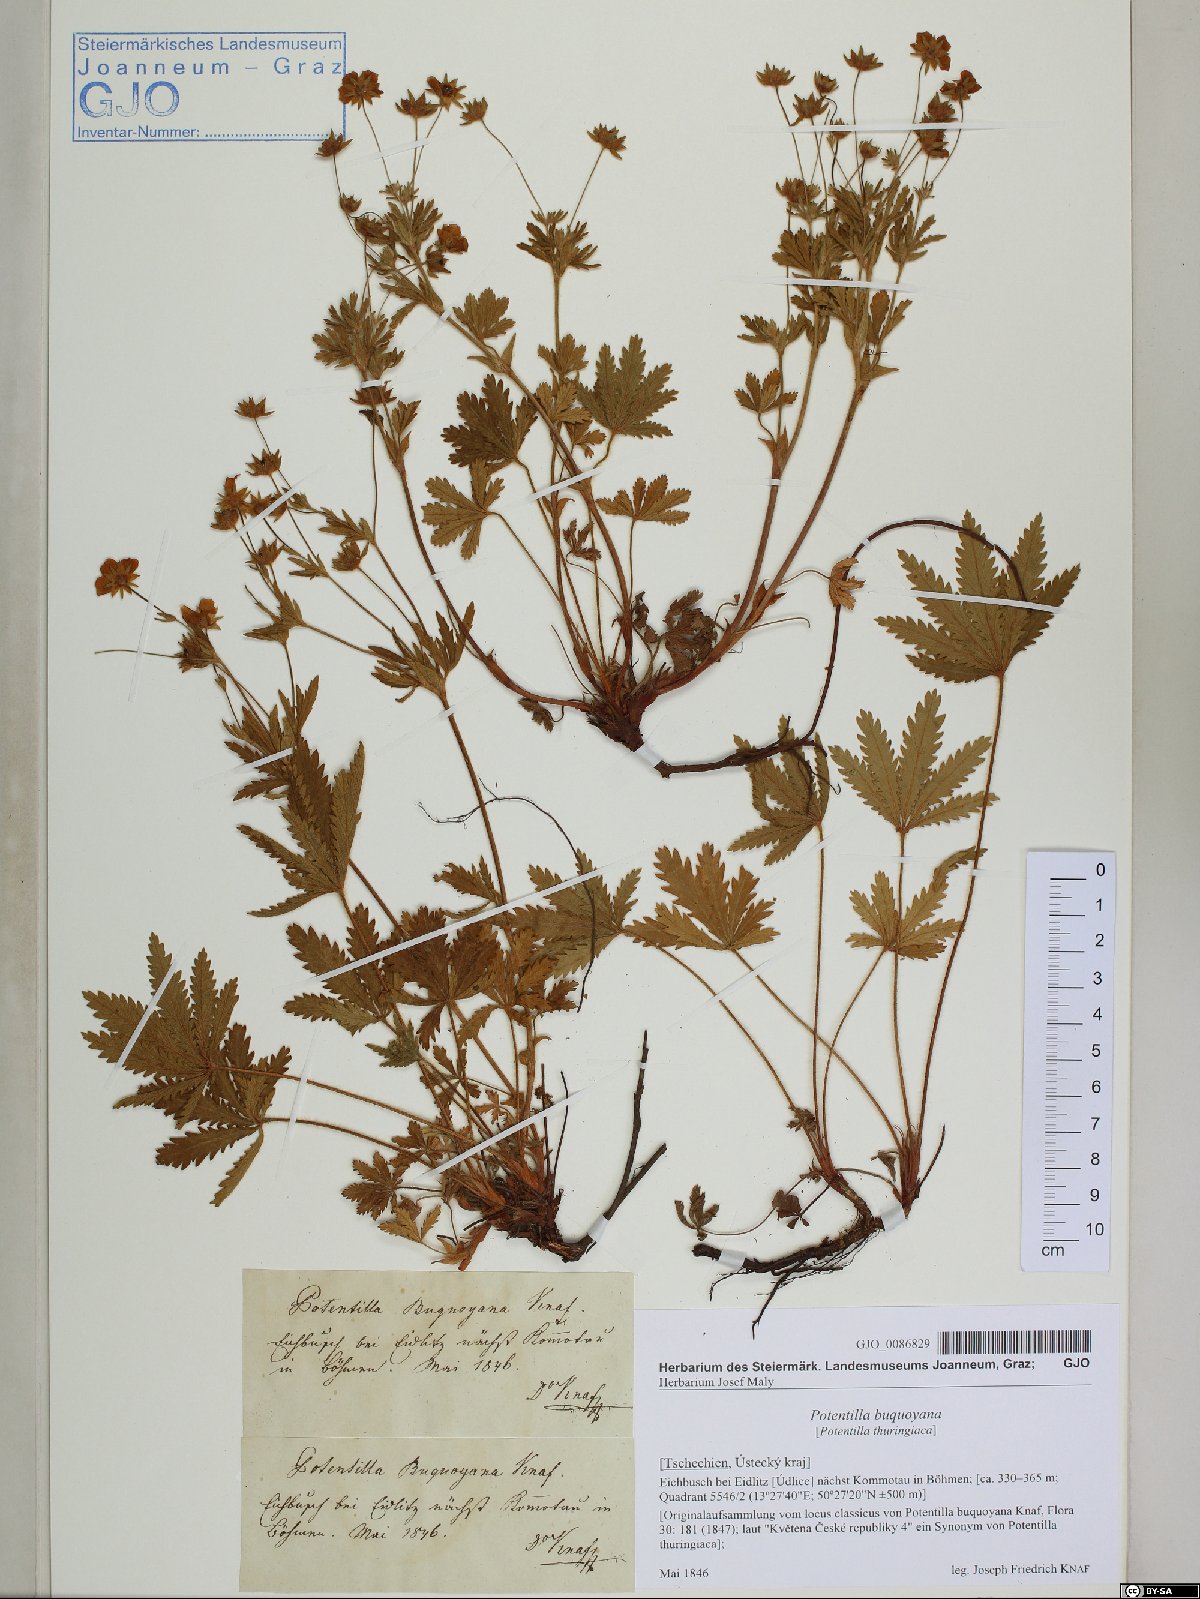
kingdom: Plantae
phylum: Tracheophyta
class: Magnoliopsida
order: Rosales
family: Rosaceae
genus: Potentilla
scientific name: Potentilla thuringiaca
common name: European cinquefoil
